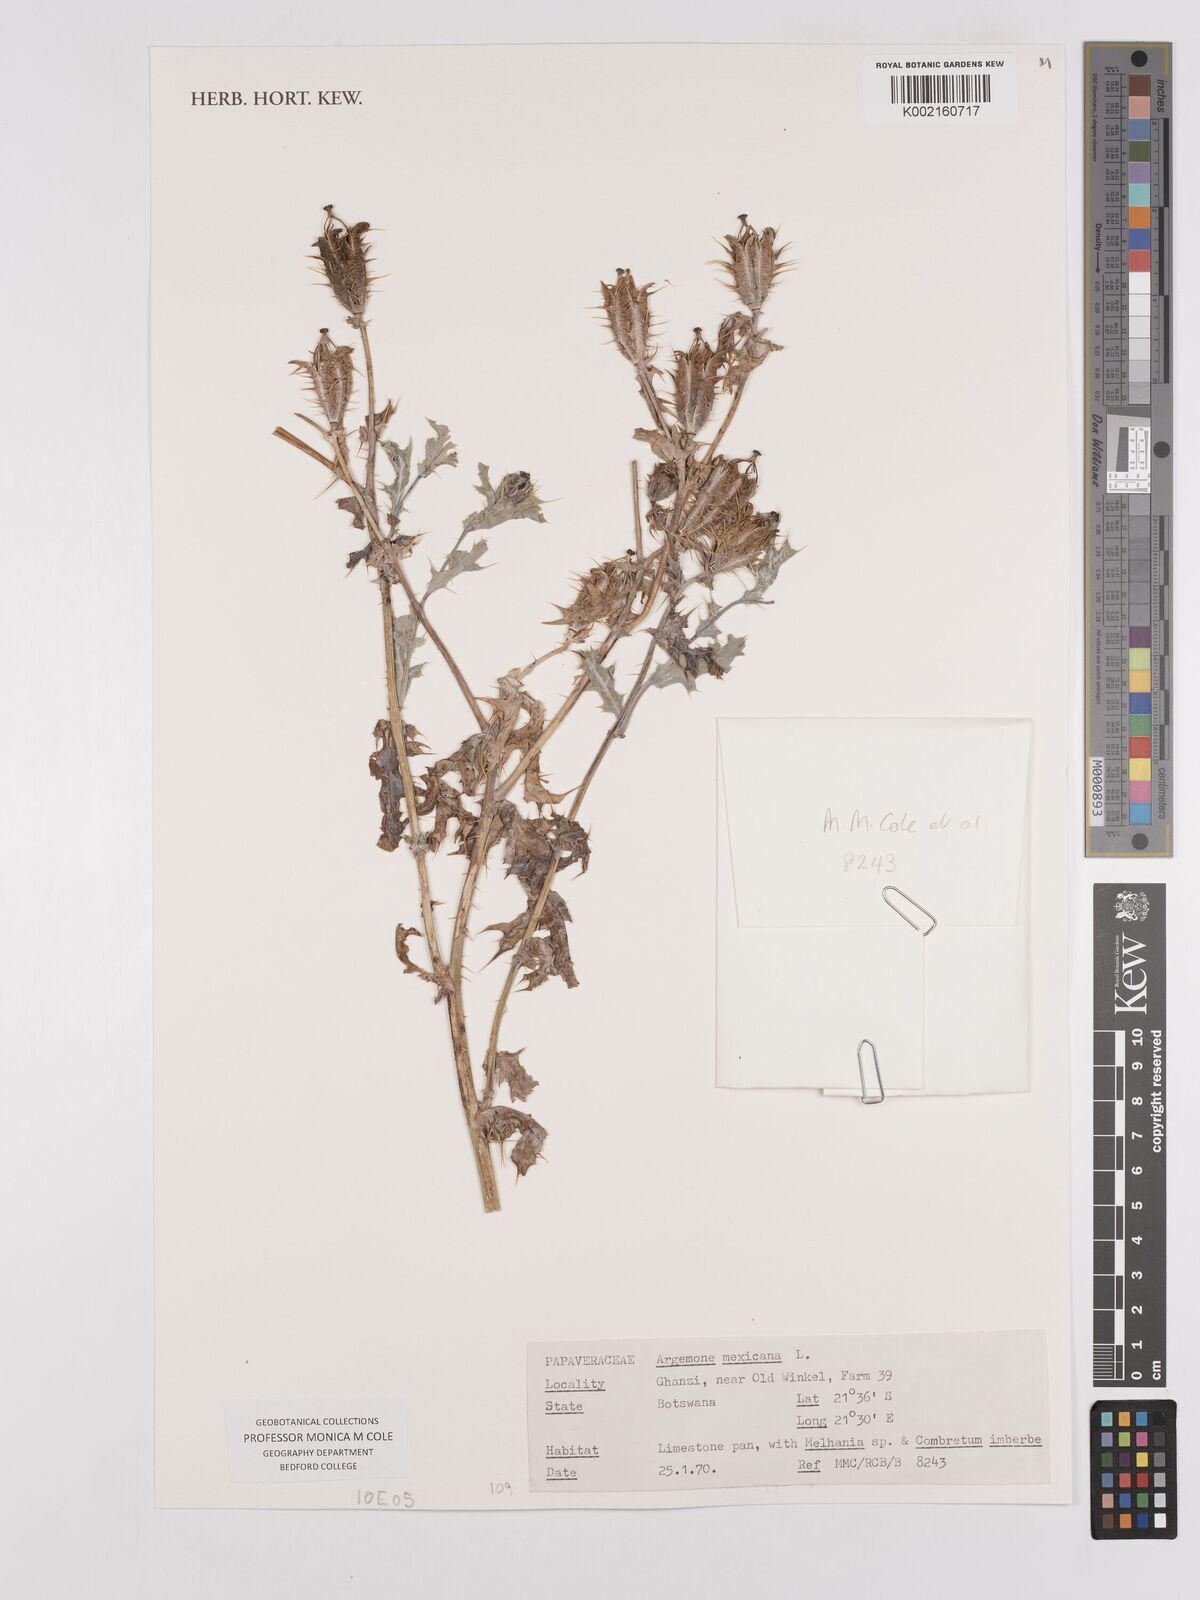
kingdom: Plantae
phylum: Tracheophyta
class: Magnoliopsida
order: Ranunculales
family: Papaveraceae
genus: Argemone
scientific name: Argemone mexicana
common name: Mexican poppy
